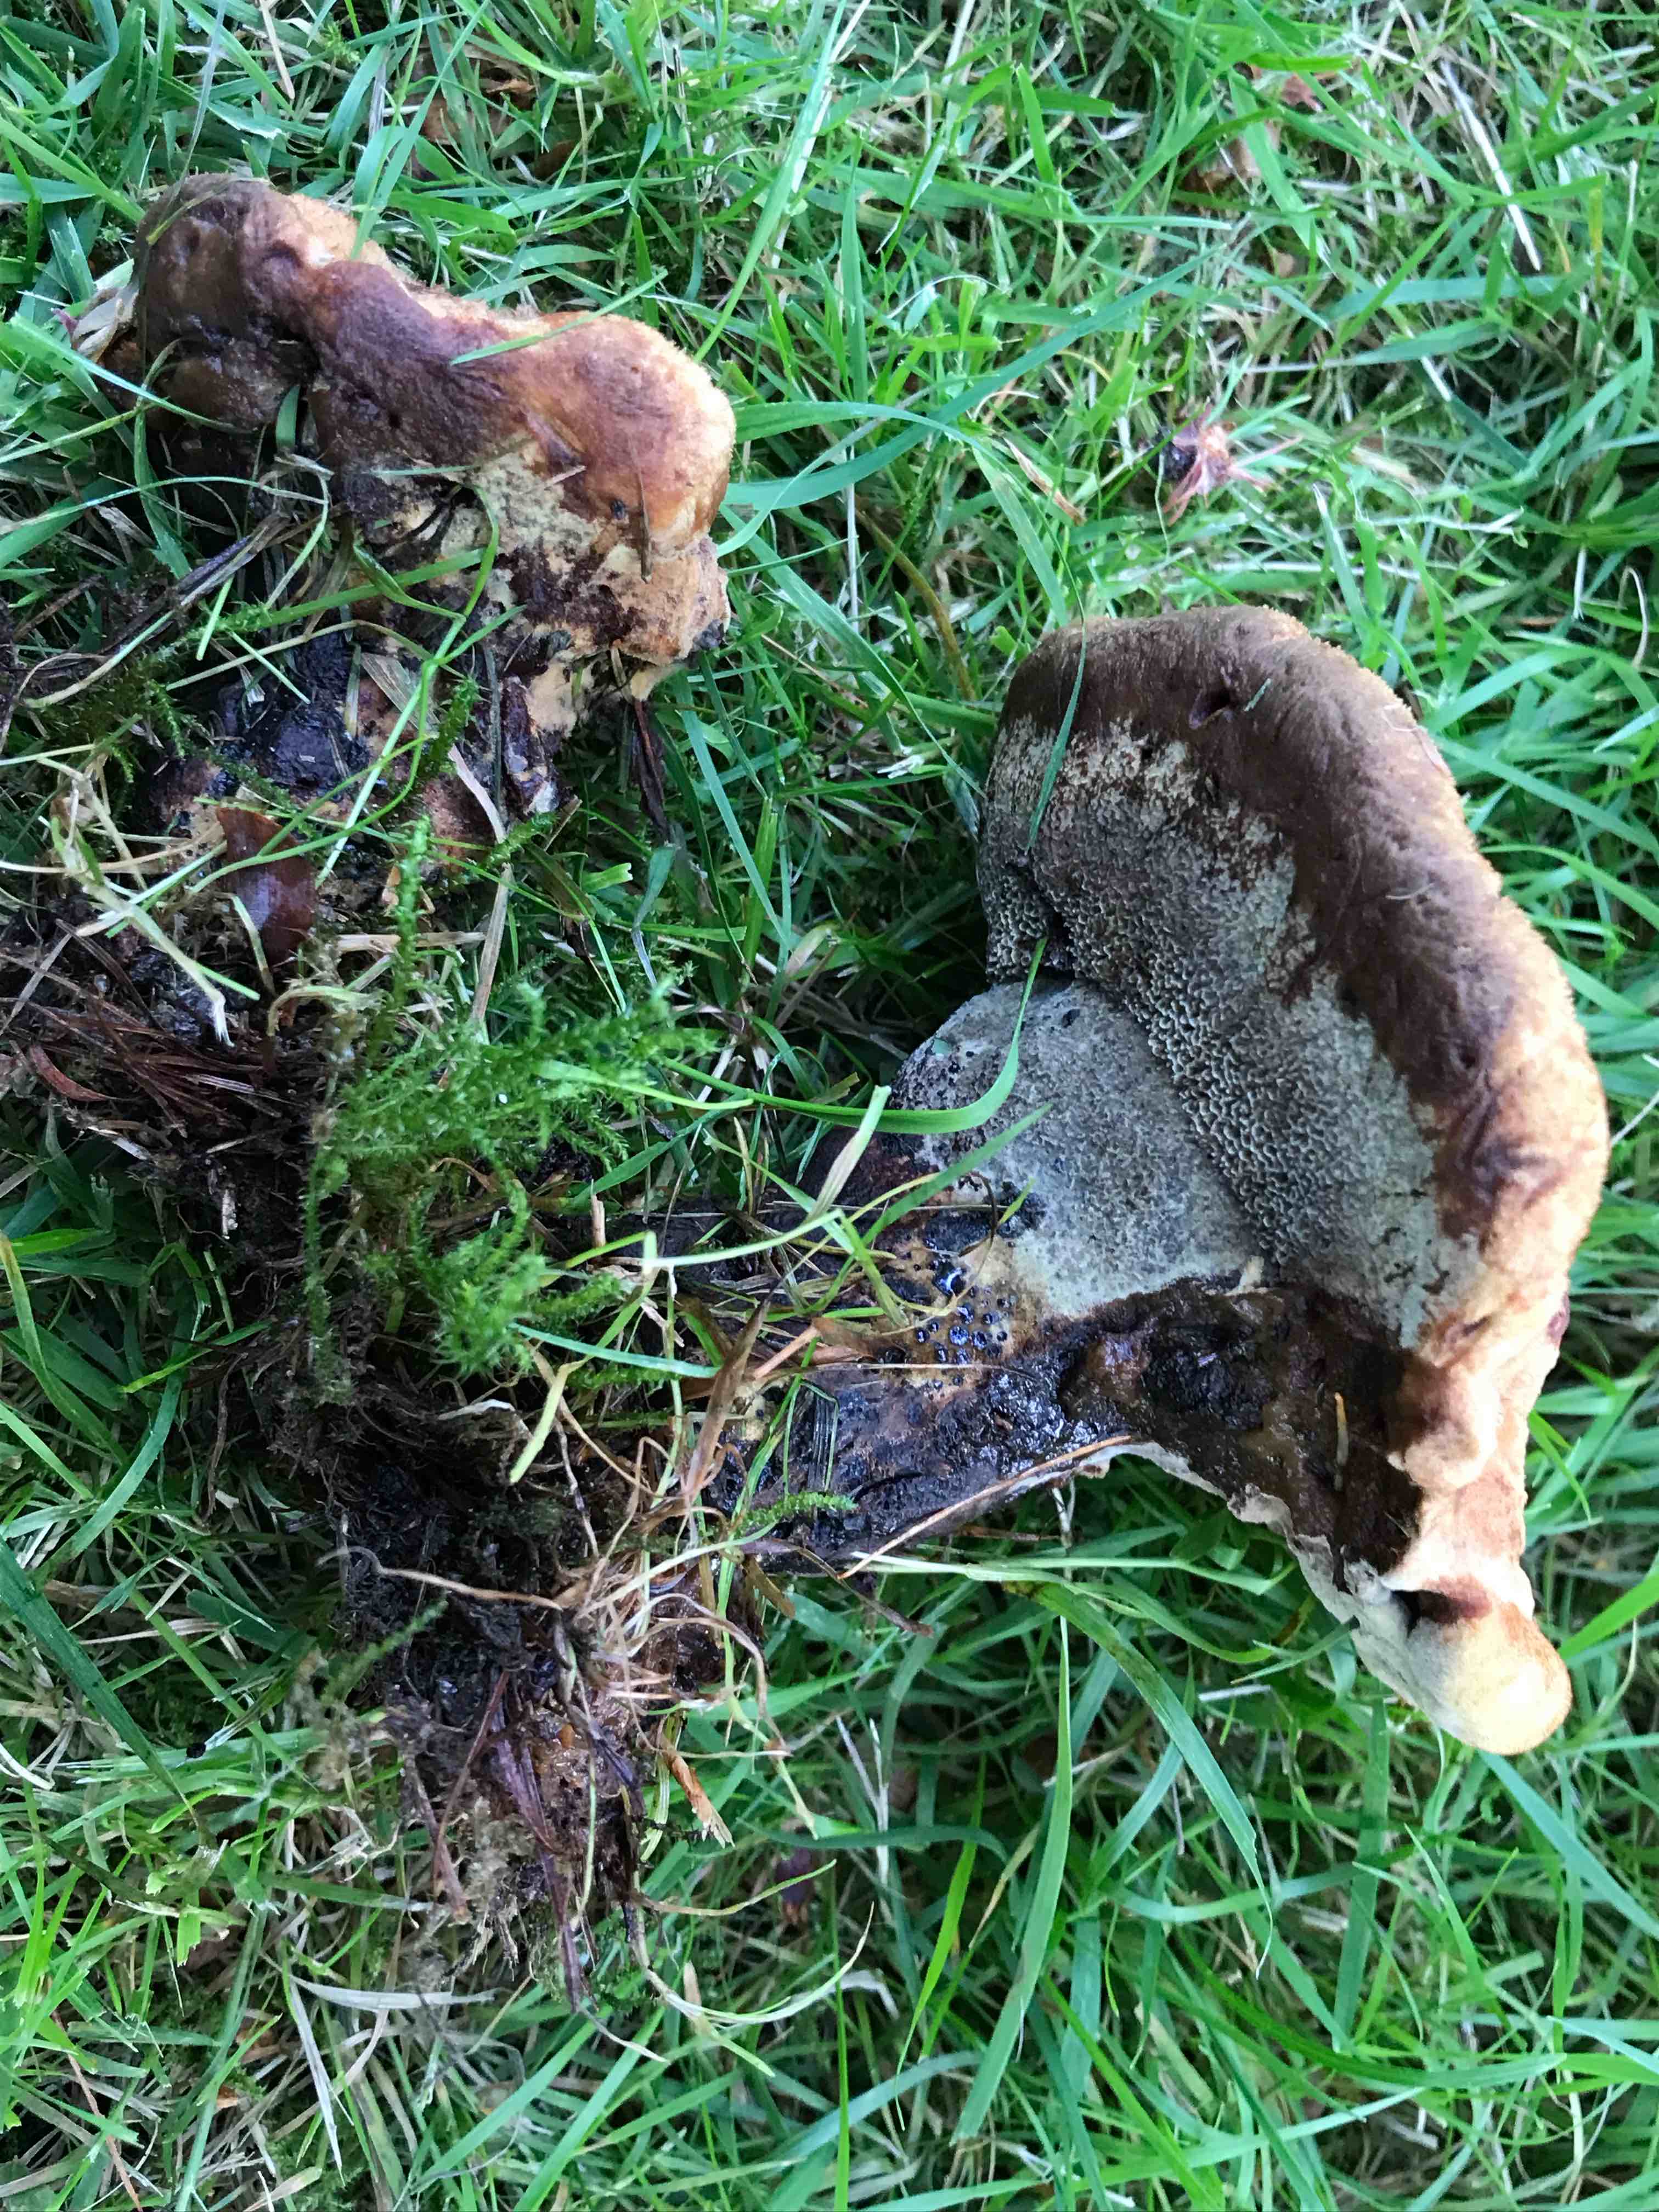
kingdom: Fungi
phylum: Basidiomycota
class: Agaricomycetes
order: Polyporales
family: Laetiporaceae
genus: Phaeolus
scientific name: Phaeolus schweinitzii
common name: brunporesvamp
